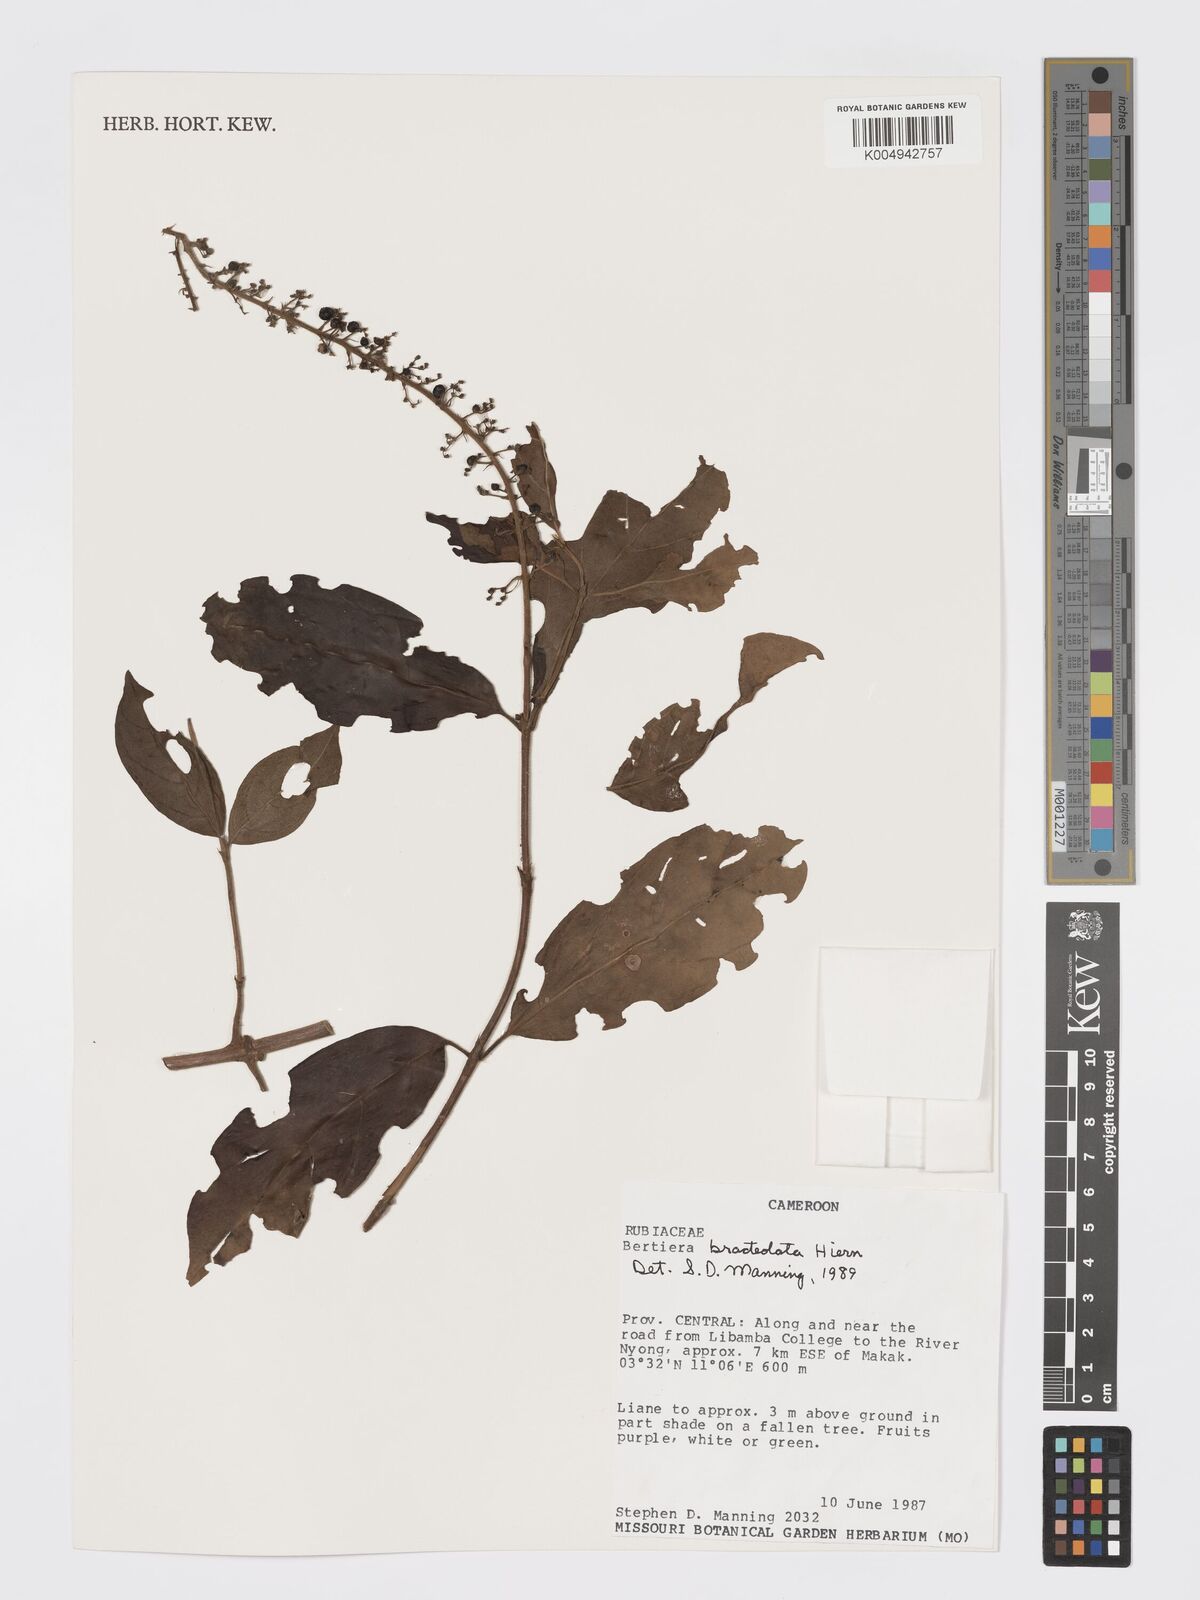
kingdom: Plantae
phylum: Tracheophyta
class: Magnoliopsida
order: Gentianales
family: Rubiaceae
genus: Bertiera
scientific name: Bertiera bracteolata
